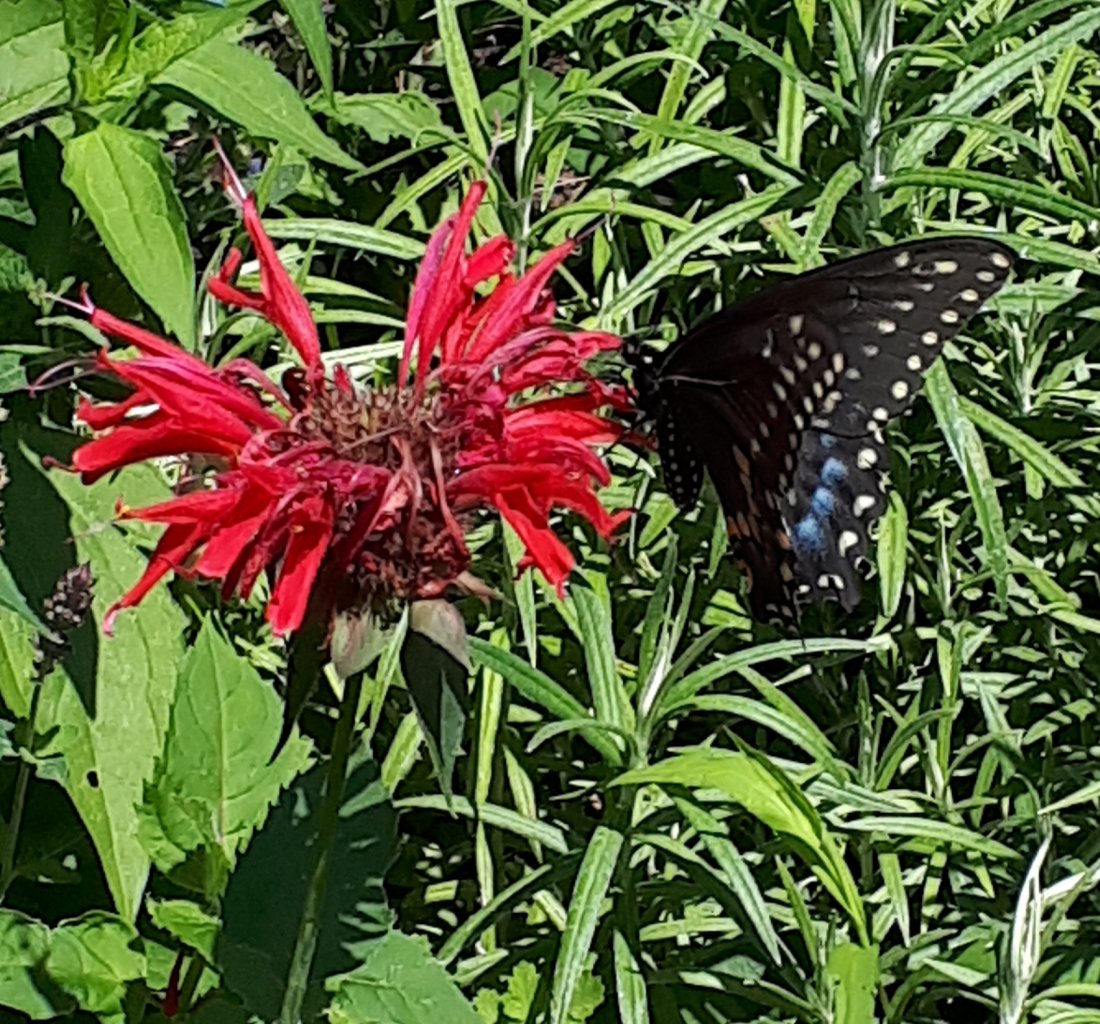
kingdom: Animalia
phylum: Arthropoda
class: Insecta
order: Lepidoptera
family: Papilionidae
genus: Papilio
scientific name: Papilio polyxenes
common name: Black Swallowtail
